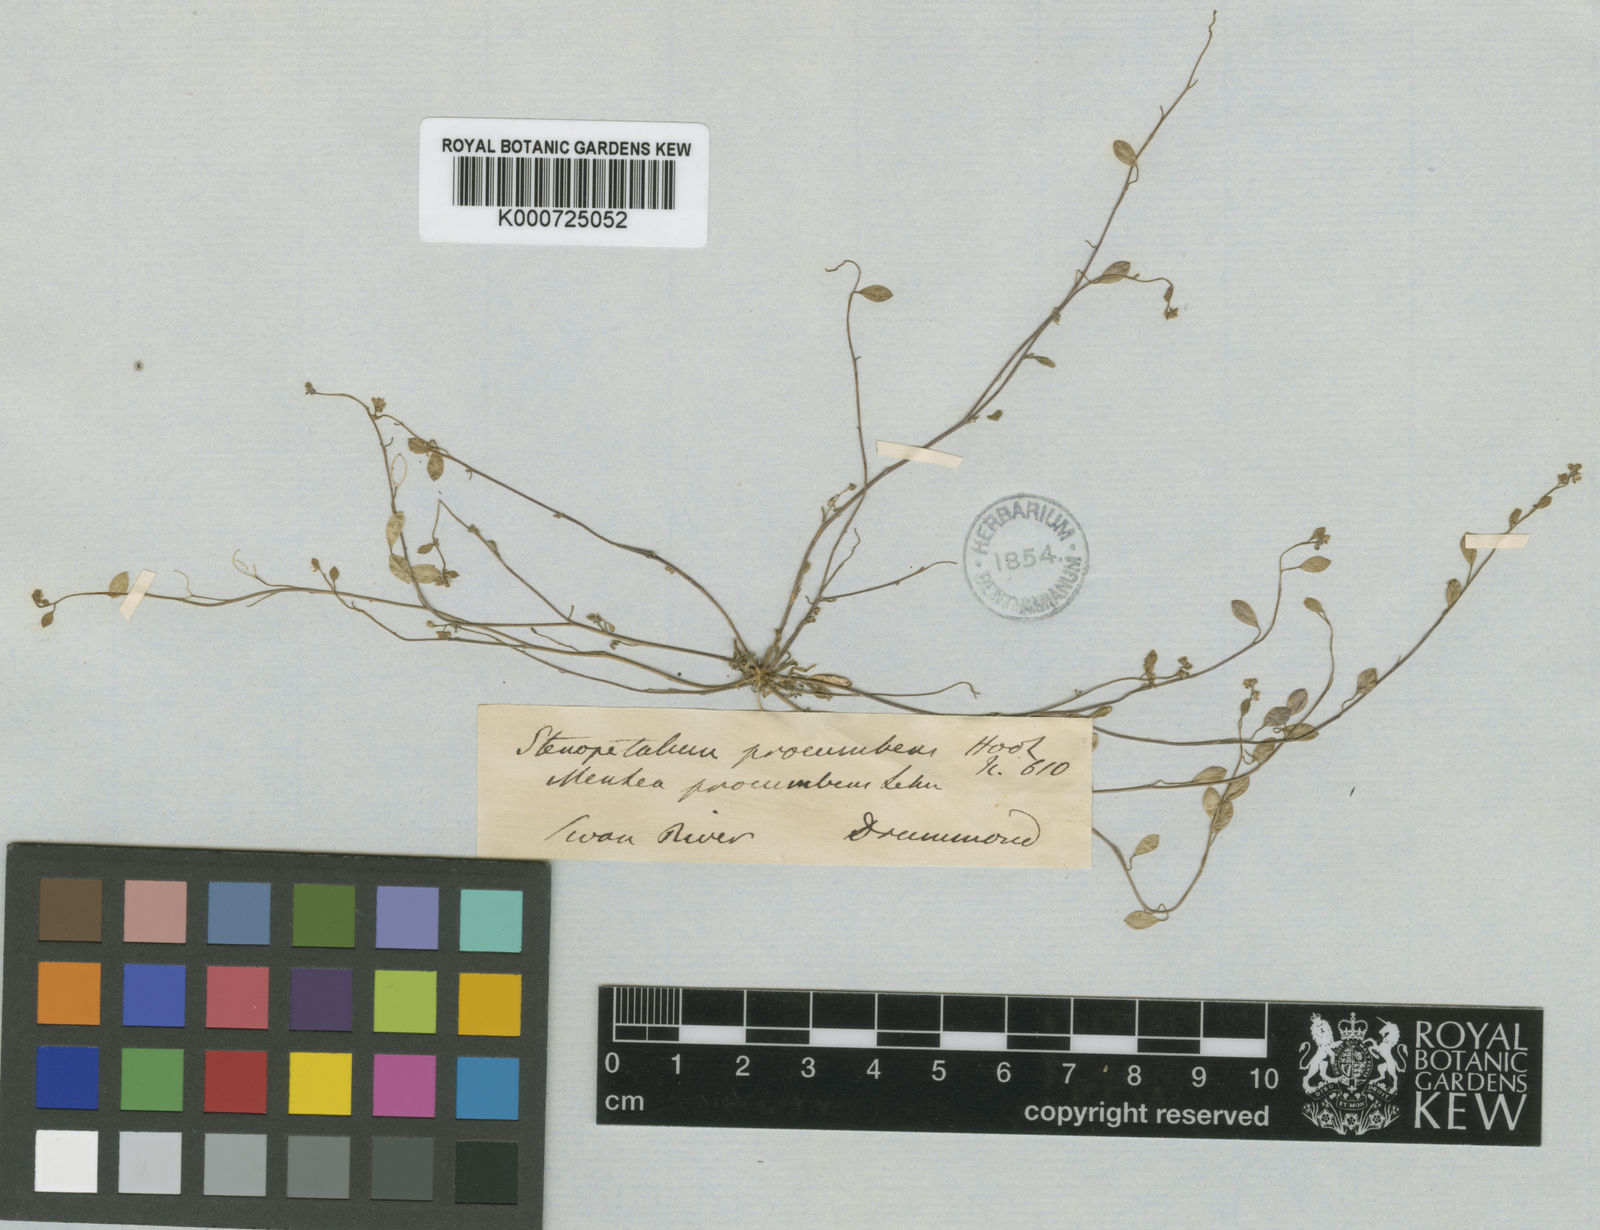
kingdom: Plantae
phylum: Tracheophyta
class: Magnoliopsida
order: Brassicales
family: Brassicaceae
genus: Menkea
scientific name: Menkea australis
